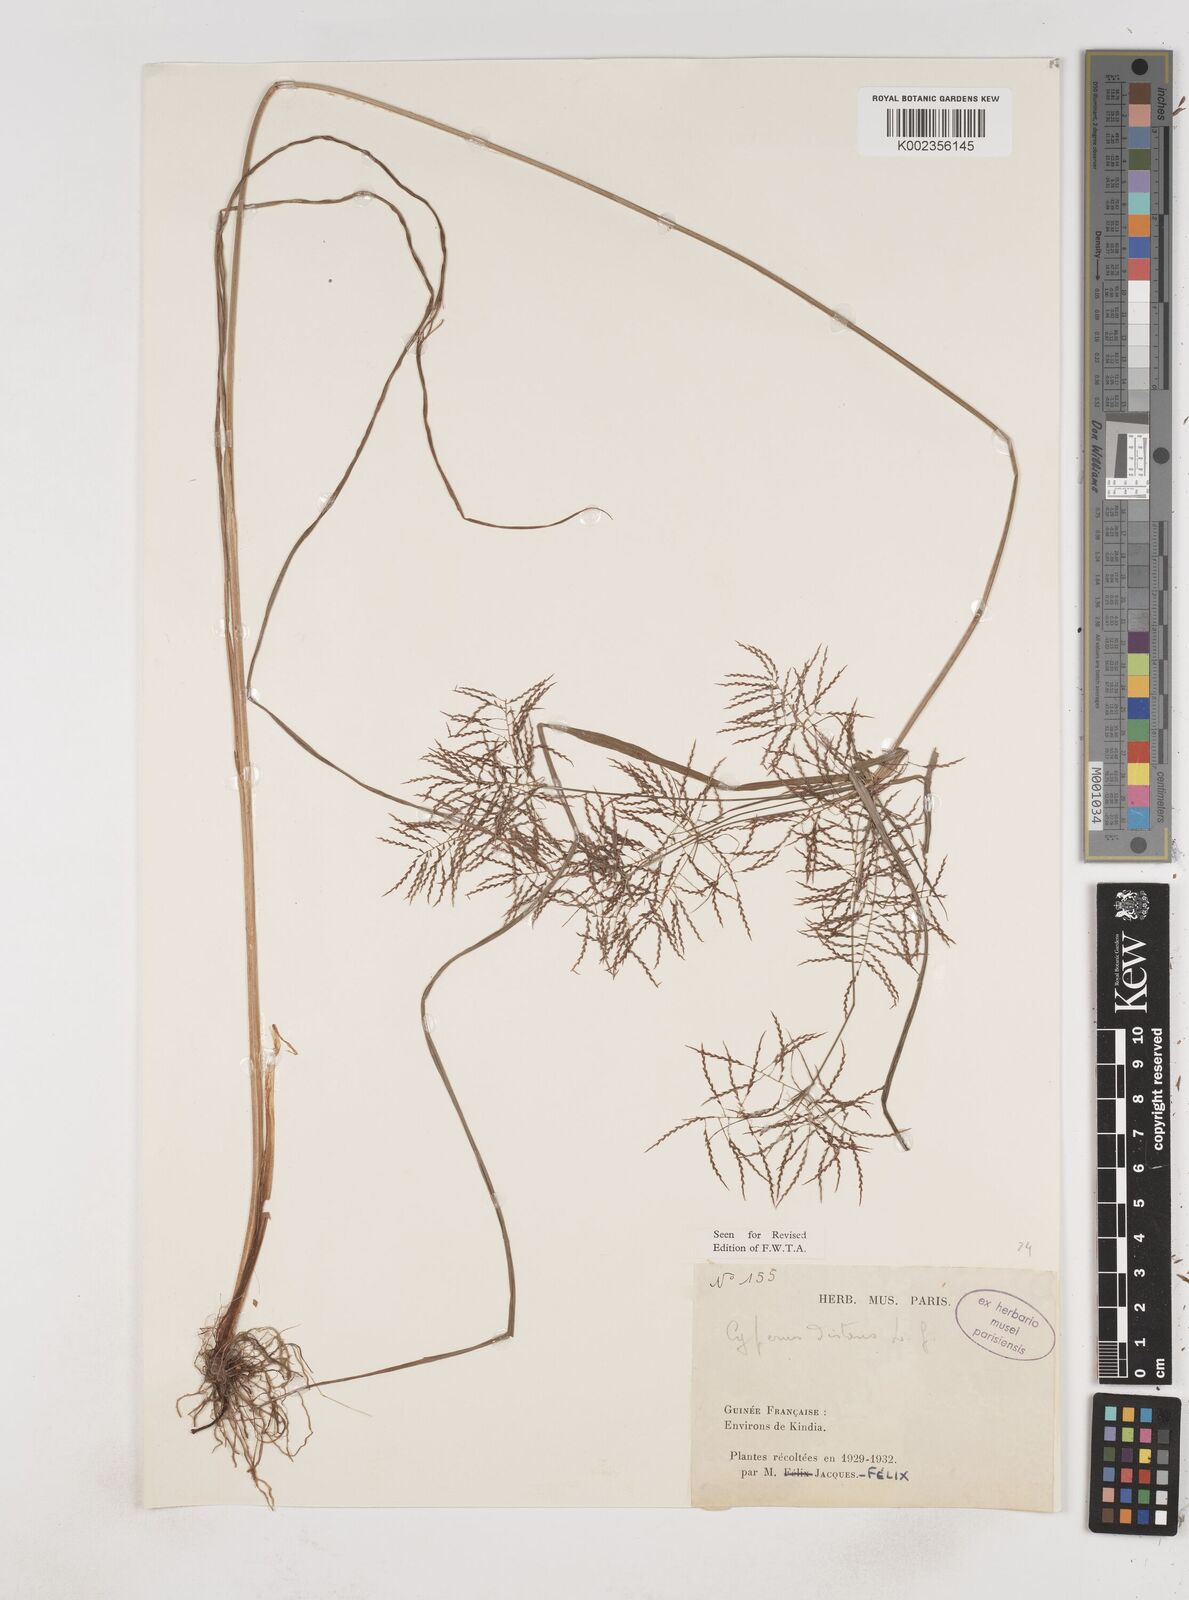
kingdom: Plantae
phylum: Tracheophyta
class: Liliopsida
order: Poales
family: Cyperaceae
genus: Cyperus
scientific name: Cyperus distans
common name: Slender cyperus
